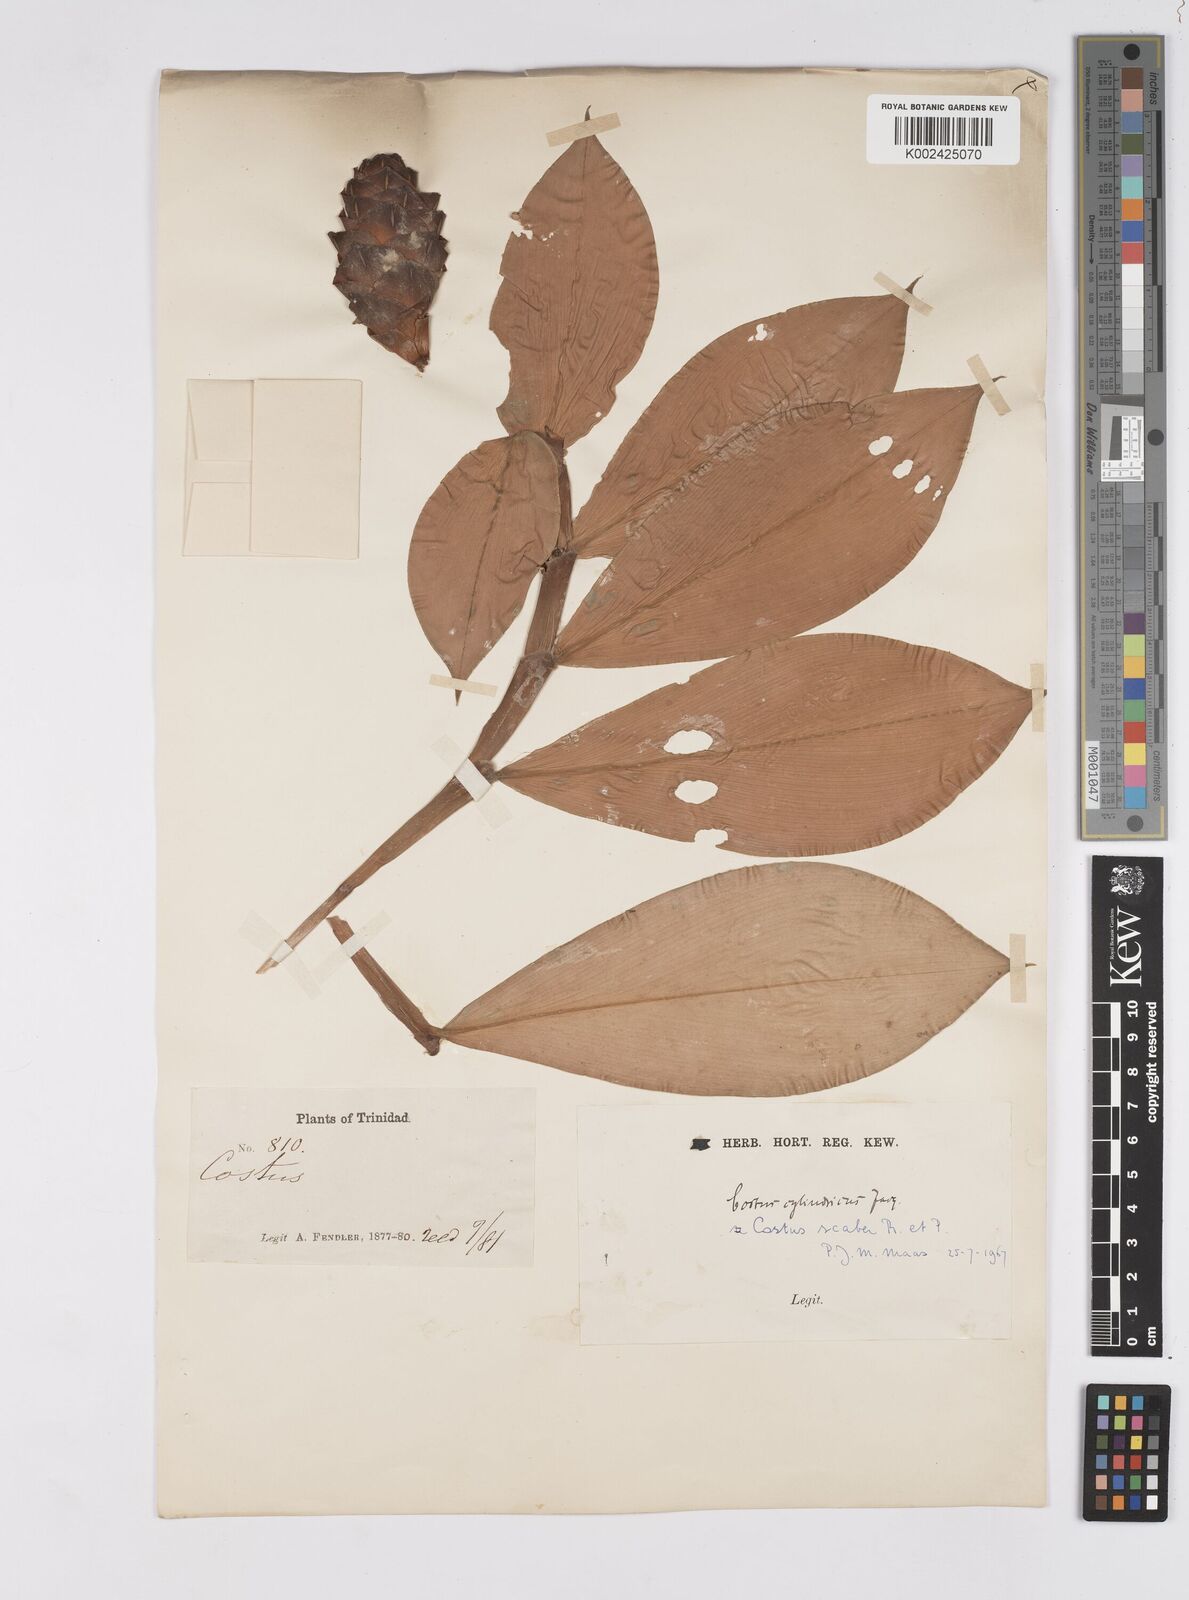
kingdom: Plantae
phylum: Tracheophyta
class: Liliopsida
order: Zingiberales
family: Costaceae
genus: Costus
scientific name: Costus scaber
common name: Spiral head ginger
